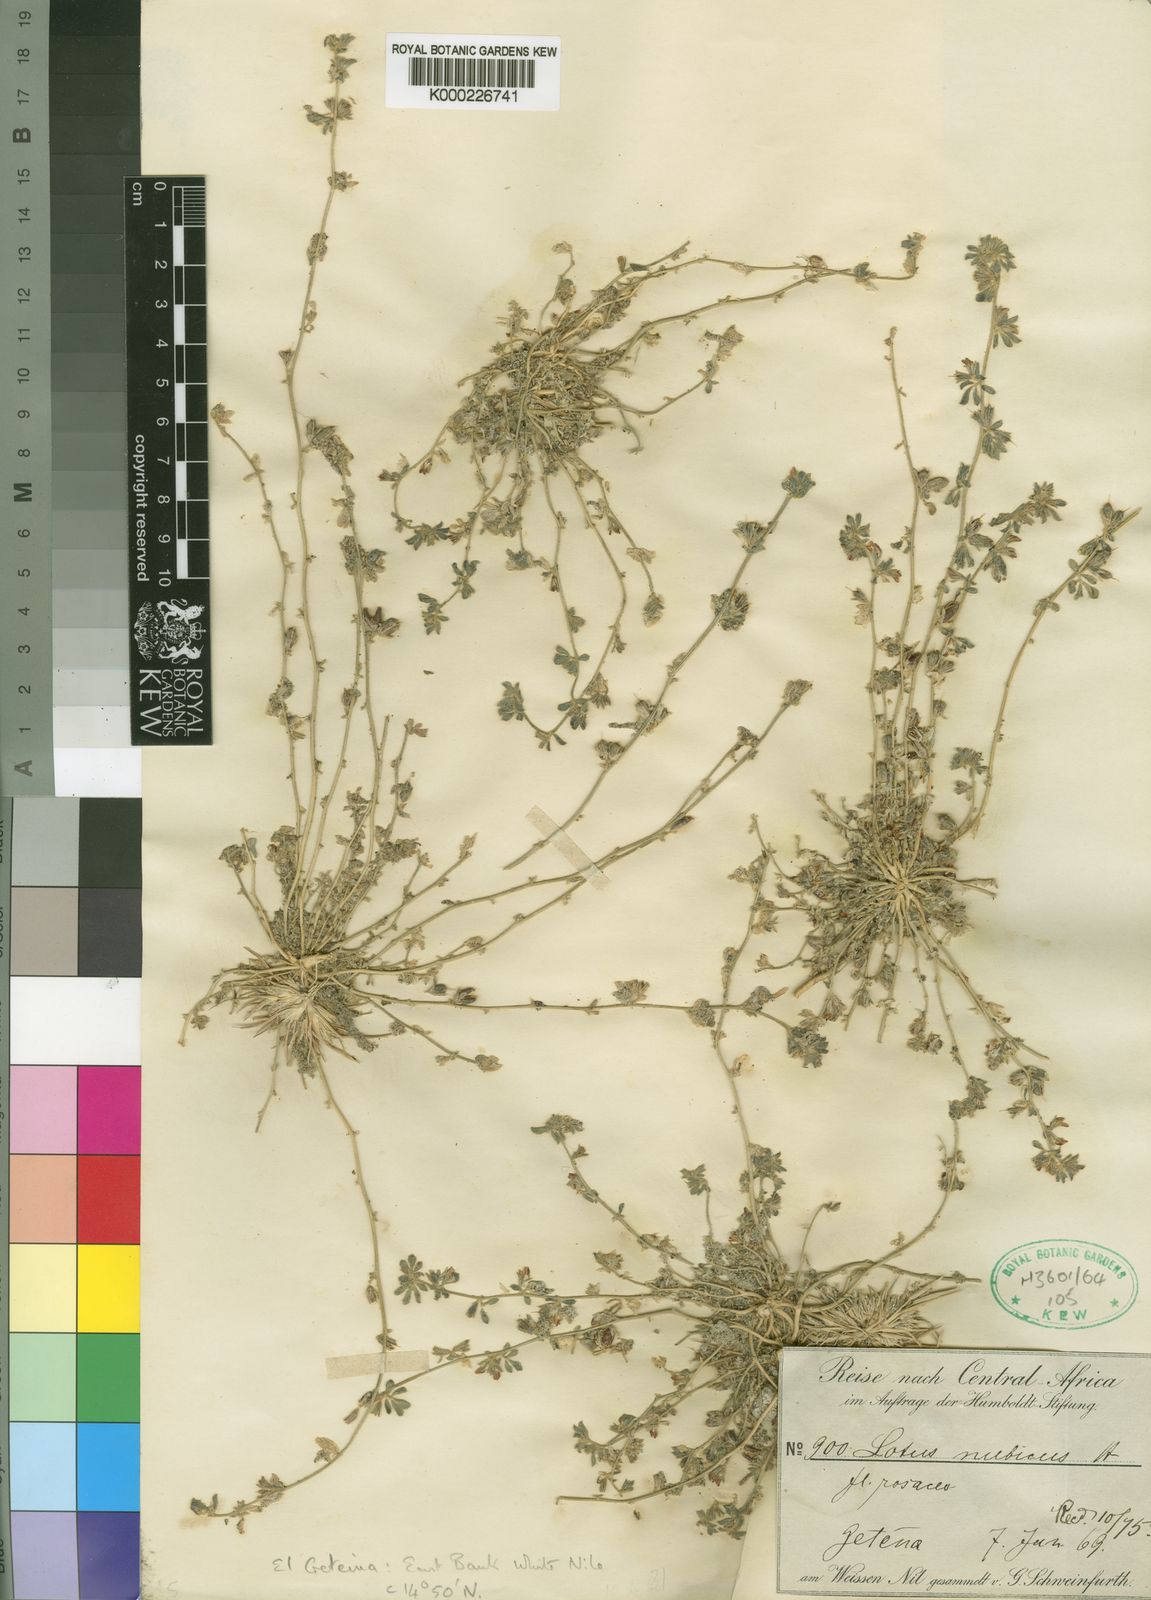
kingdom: Plantae
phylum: Tracheophyta
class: Magnoliopsida
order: Fabales
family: Fabaceae
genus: Lotus
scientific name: Lotus
